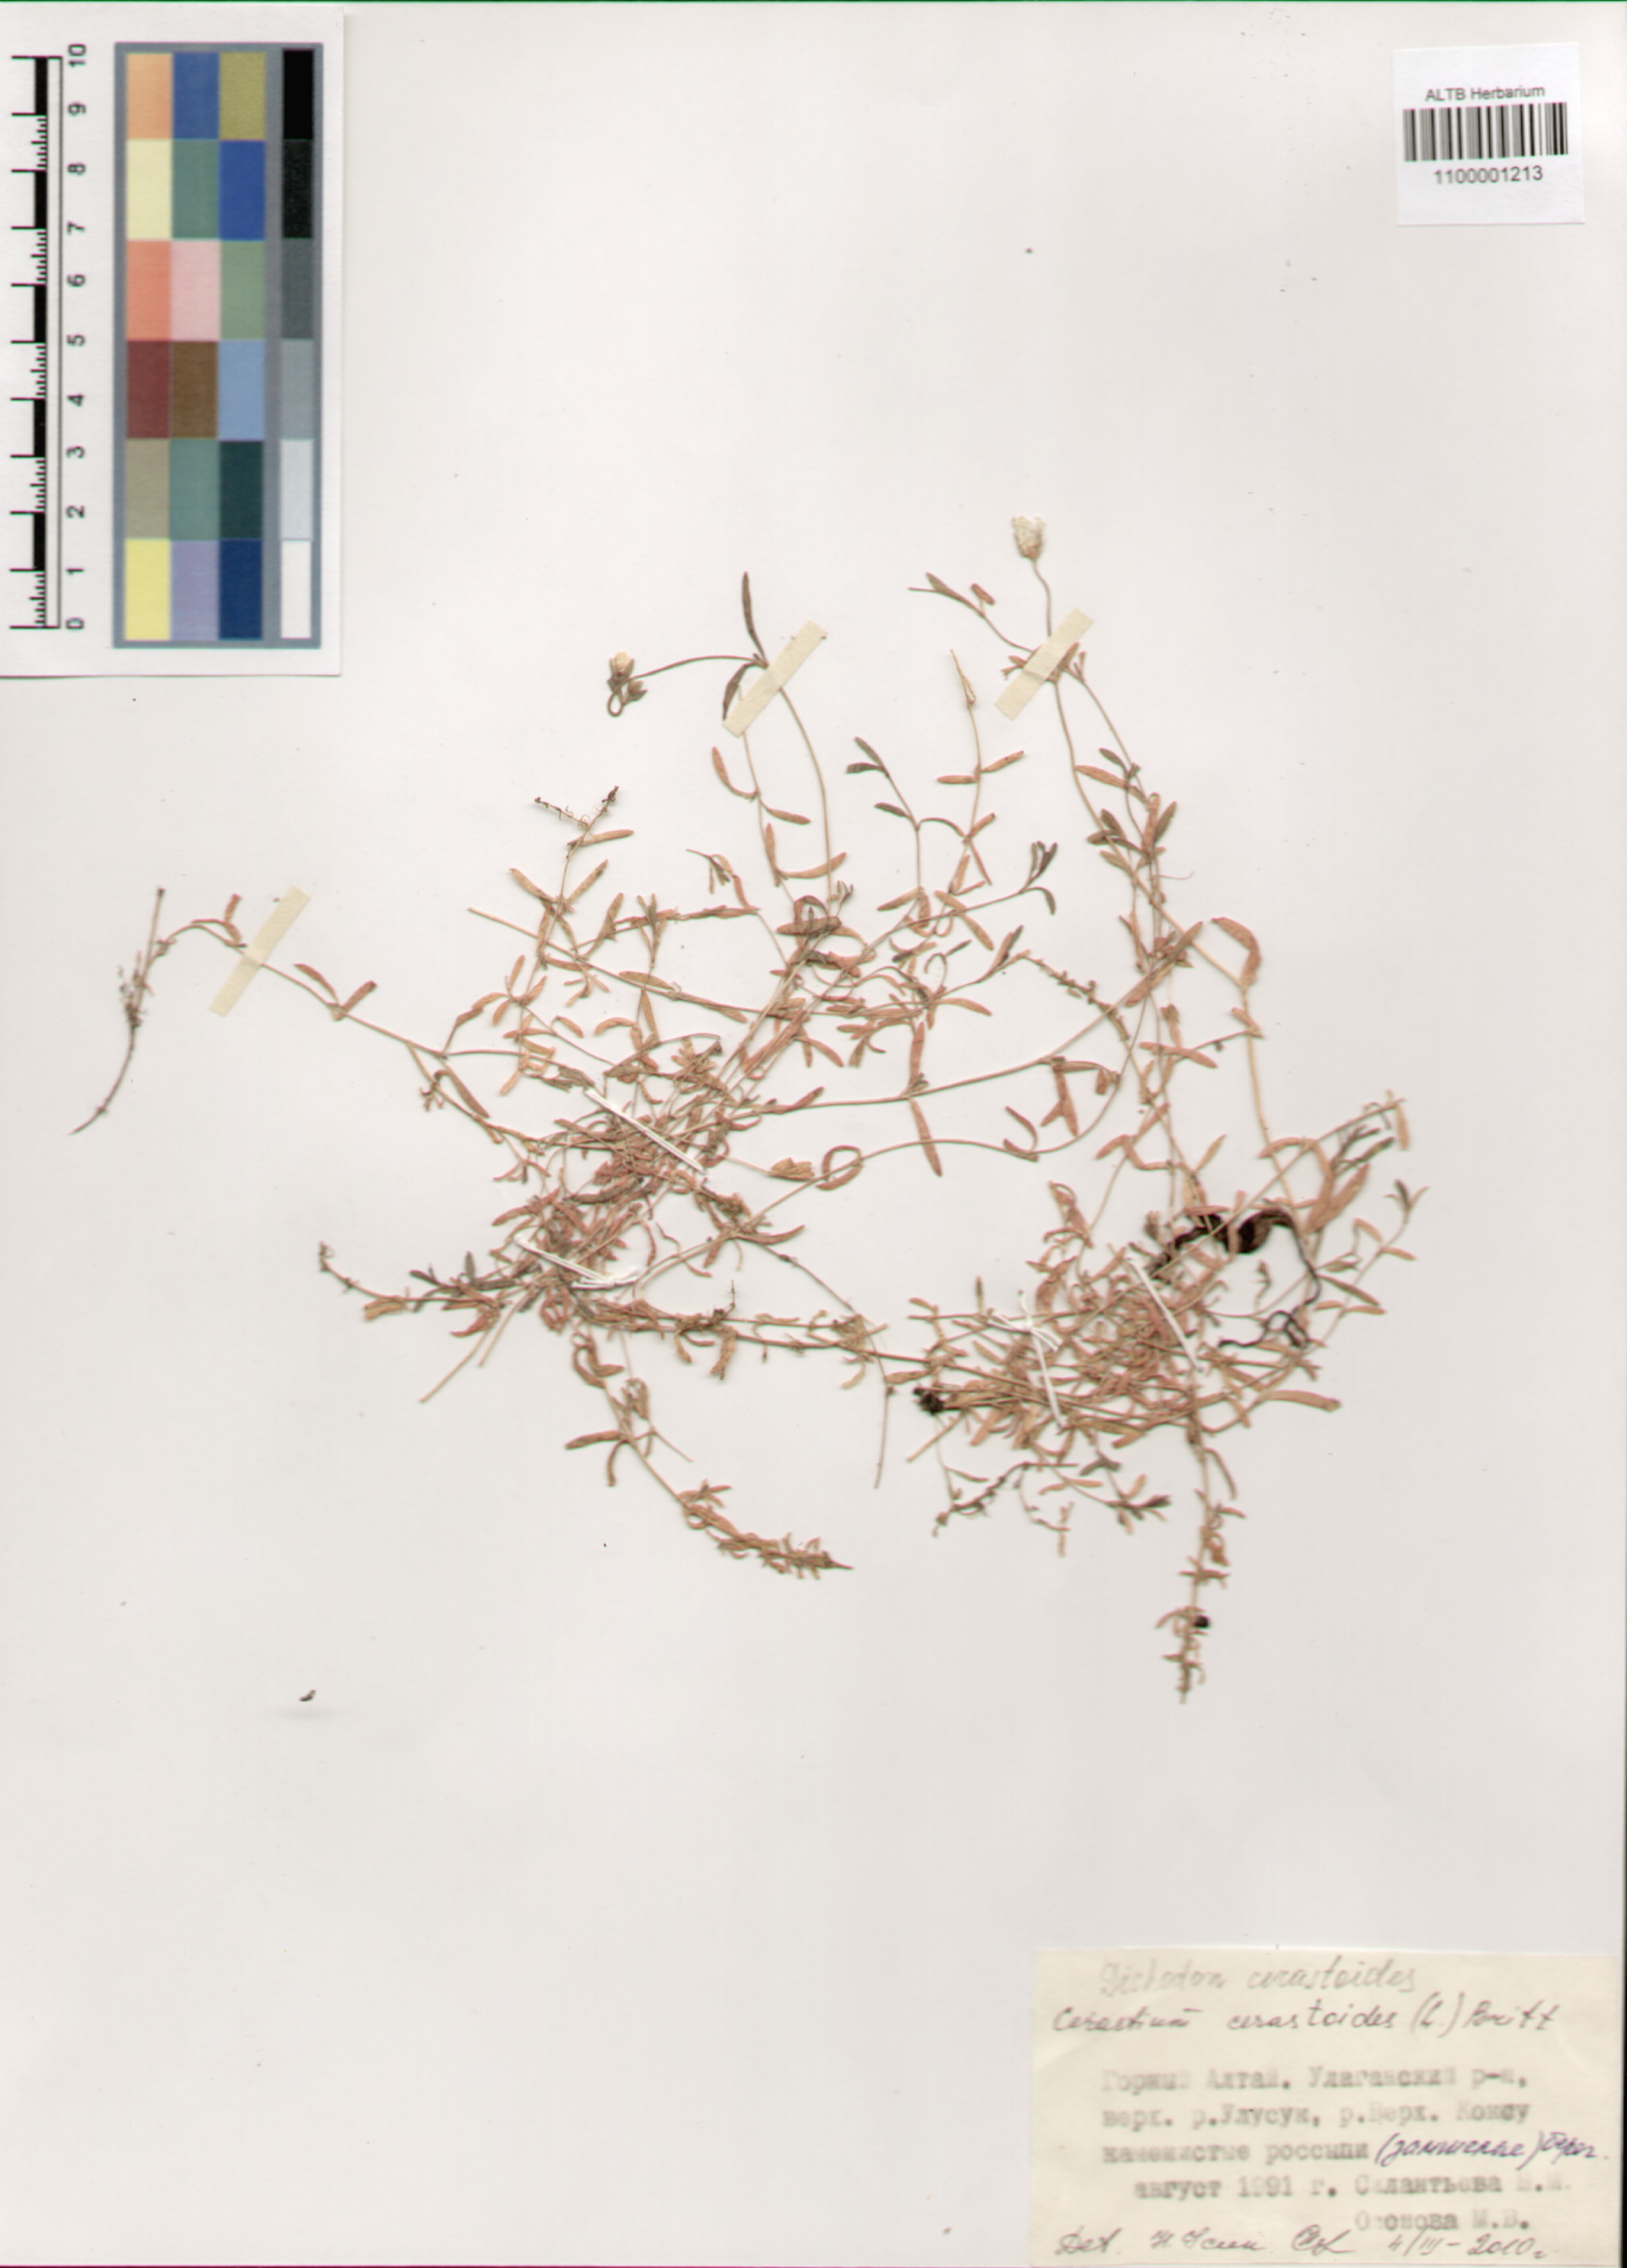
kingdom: Plantae
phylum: Tracheophyta
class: Magnoliopsida
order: Caryophyllales
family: Caryophyllaceae
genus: Dichodon
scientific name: Dichodon cerastoides
